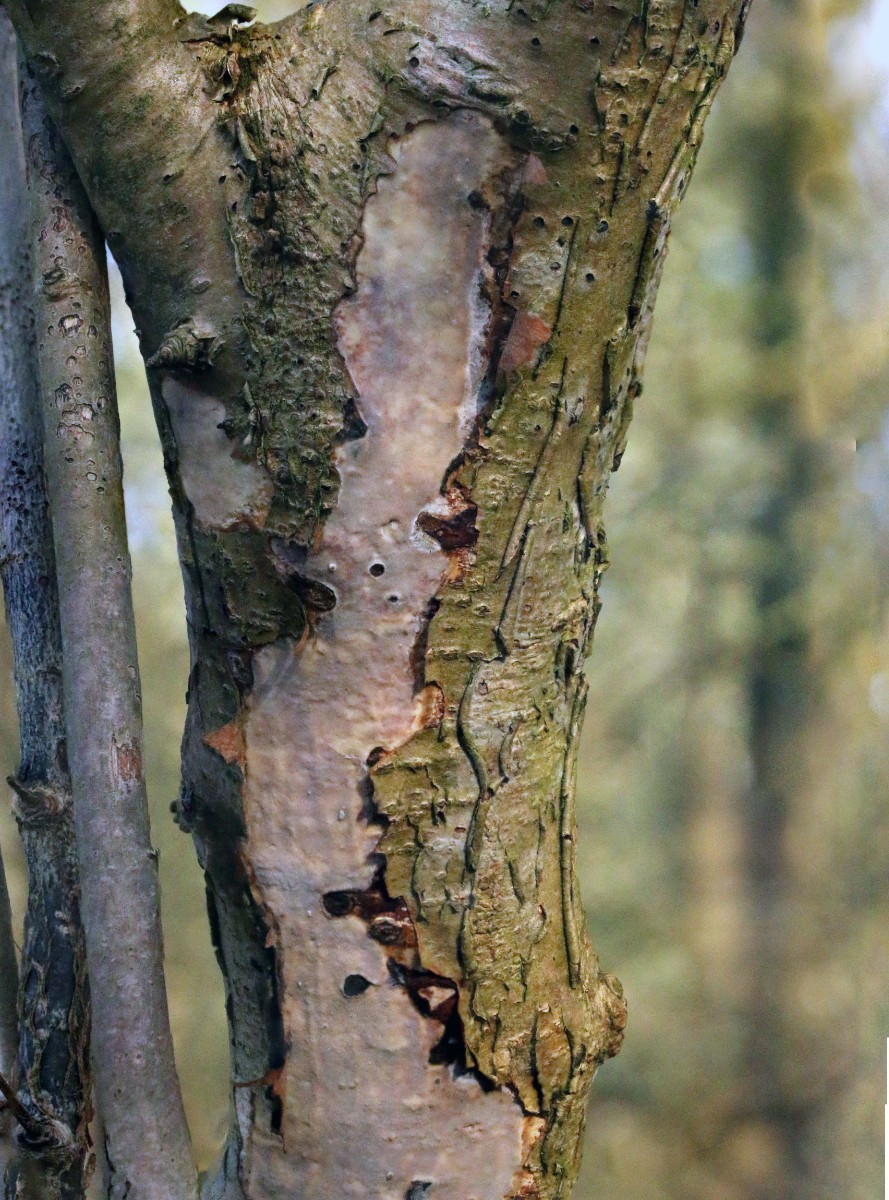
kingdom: Fungi
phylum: Basidiomycota
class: Agaricomycetes
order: Corticiales
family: Vuilleminiaceae
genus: Vuilleminia
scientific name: Vuilleminia coryli
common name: hassel-barksprænger
